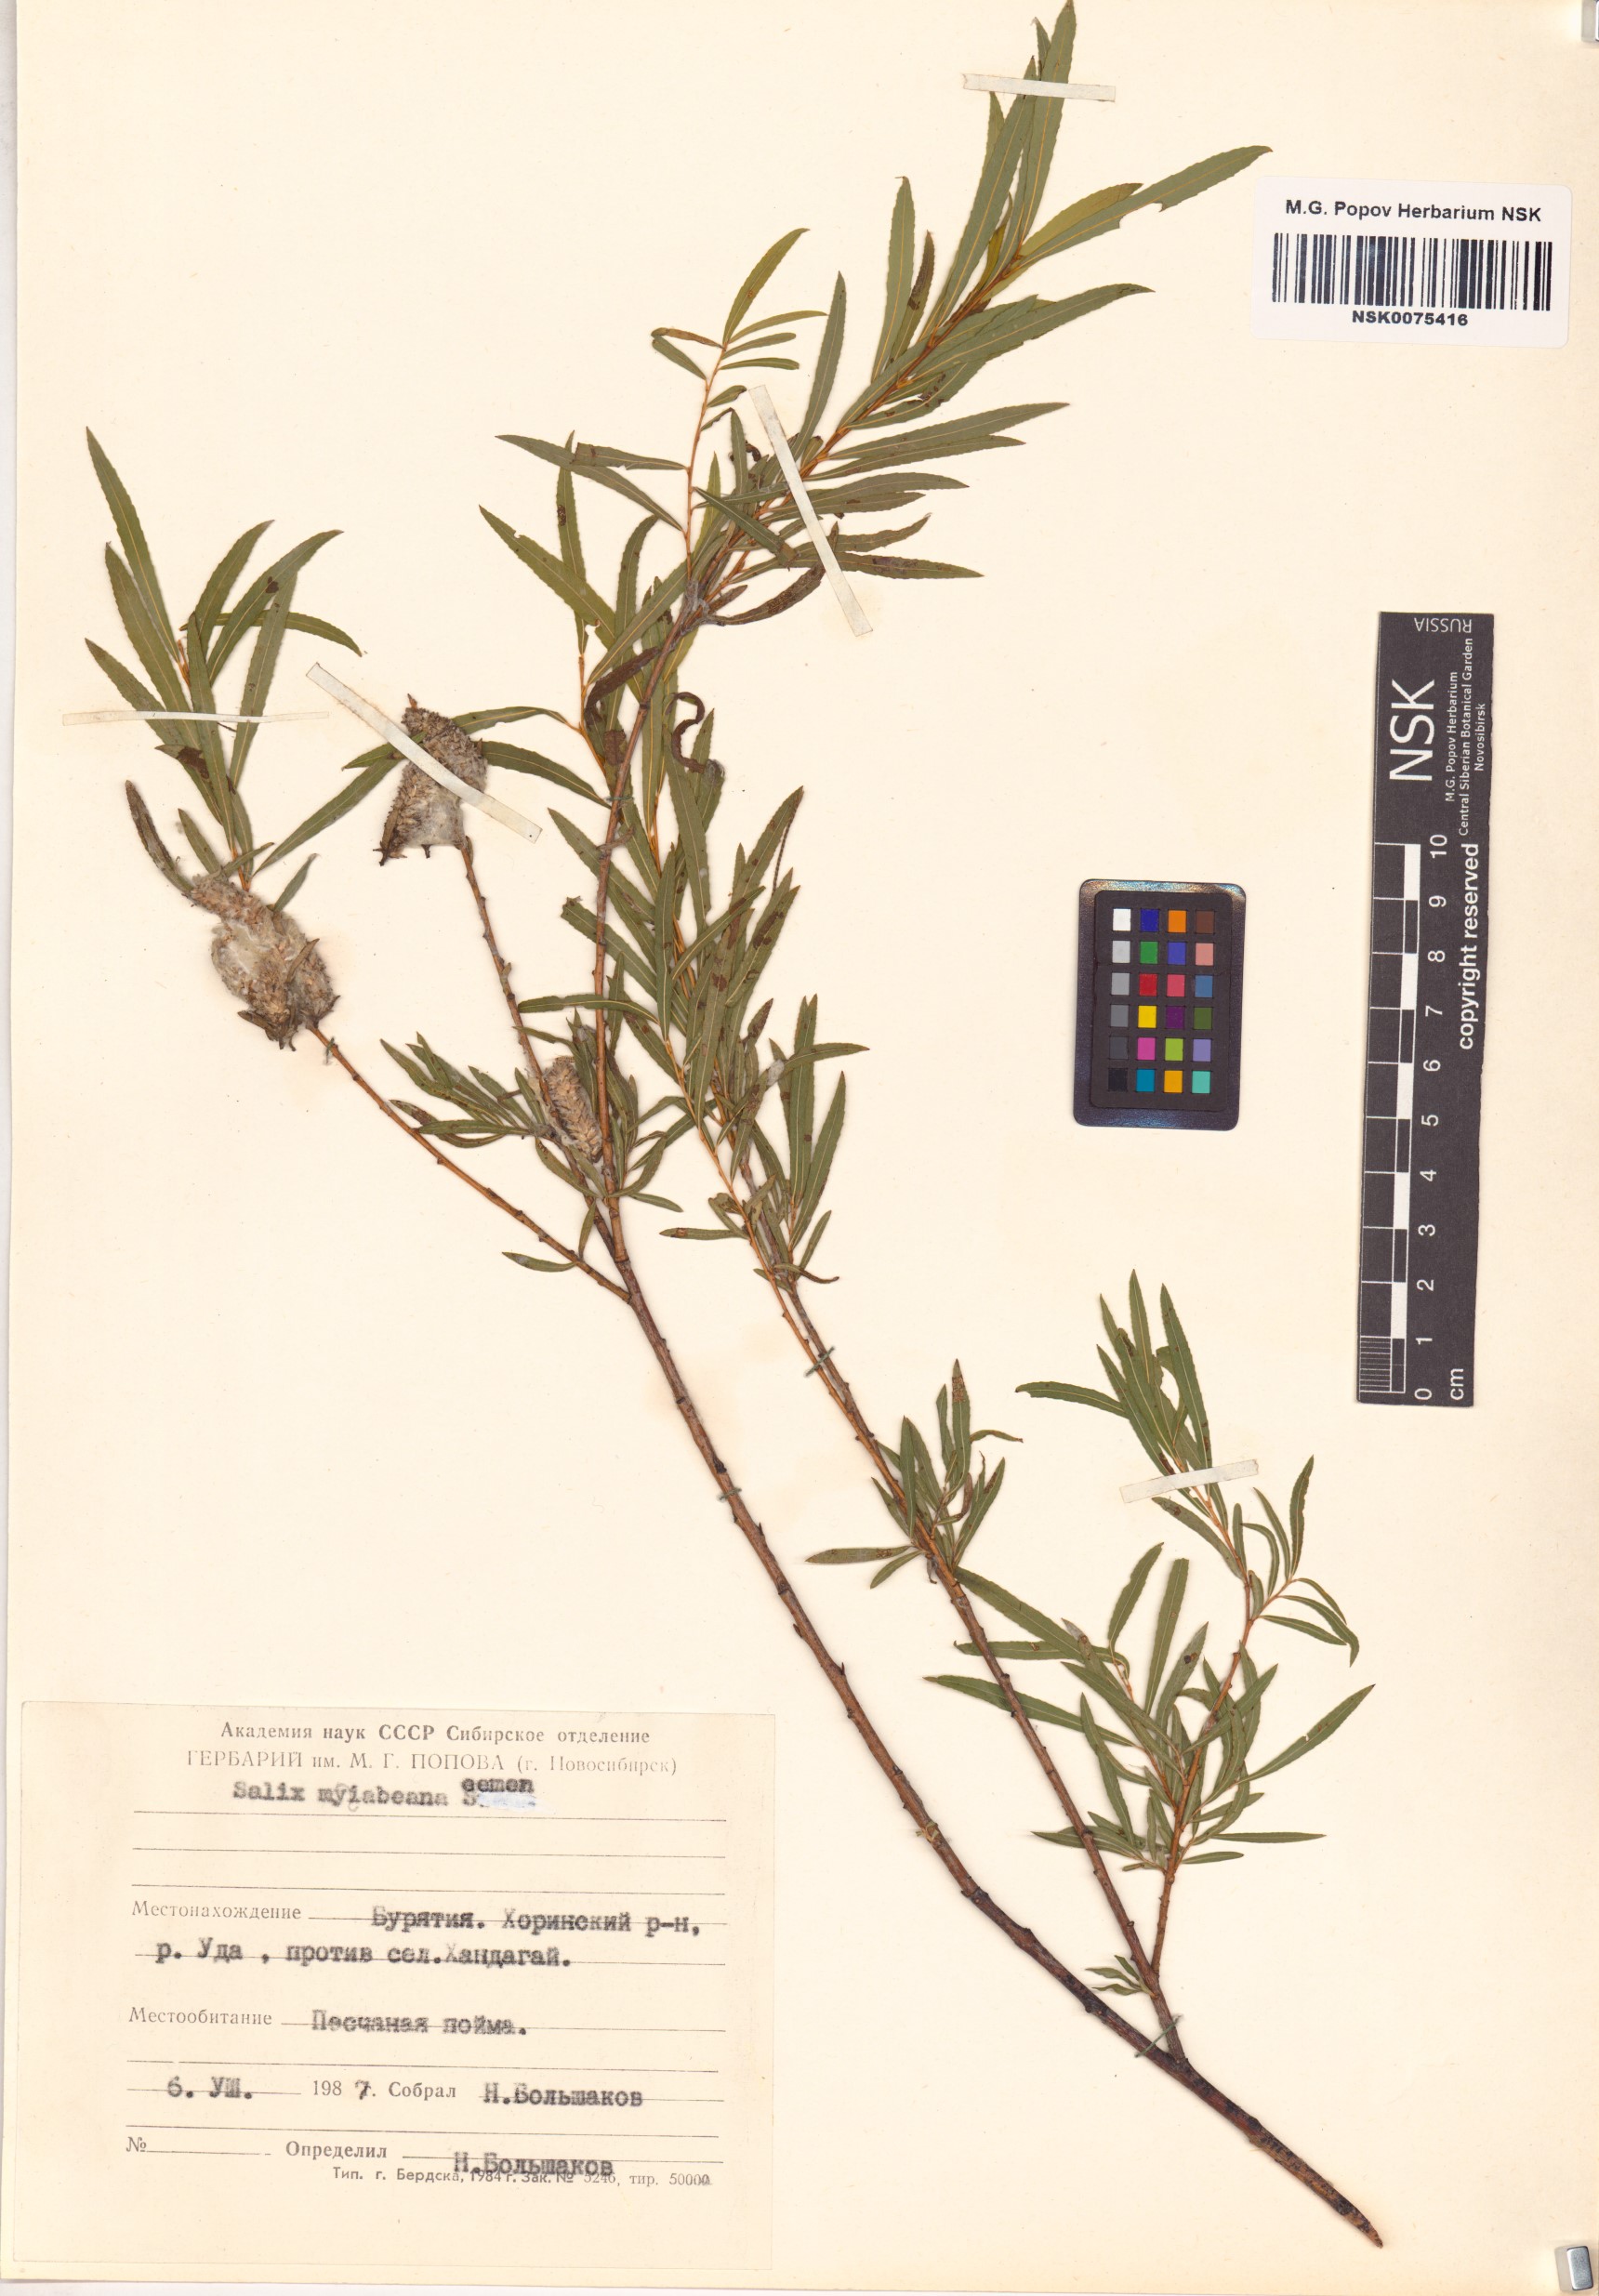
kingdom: Plantae
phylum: Tracheophyta
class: Magnoliopsida
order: Malpighiales
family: Salicaceae
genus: Salix
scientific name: Salix miyabeana
